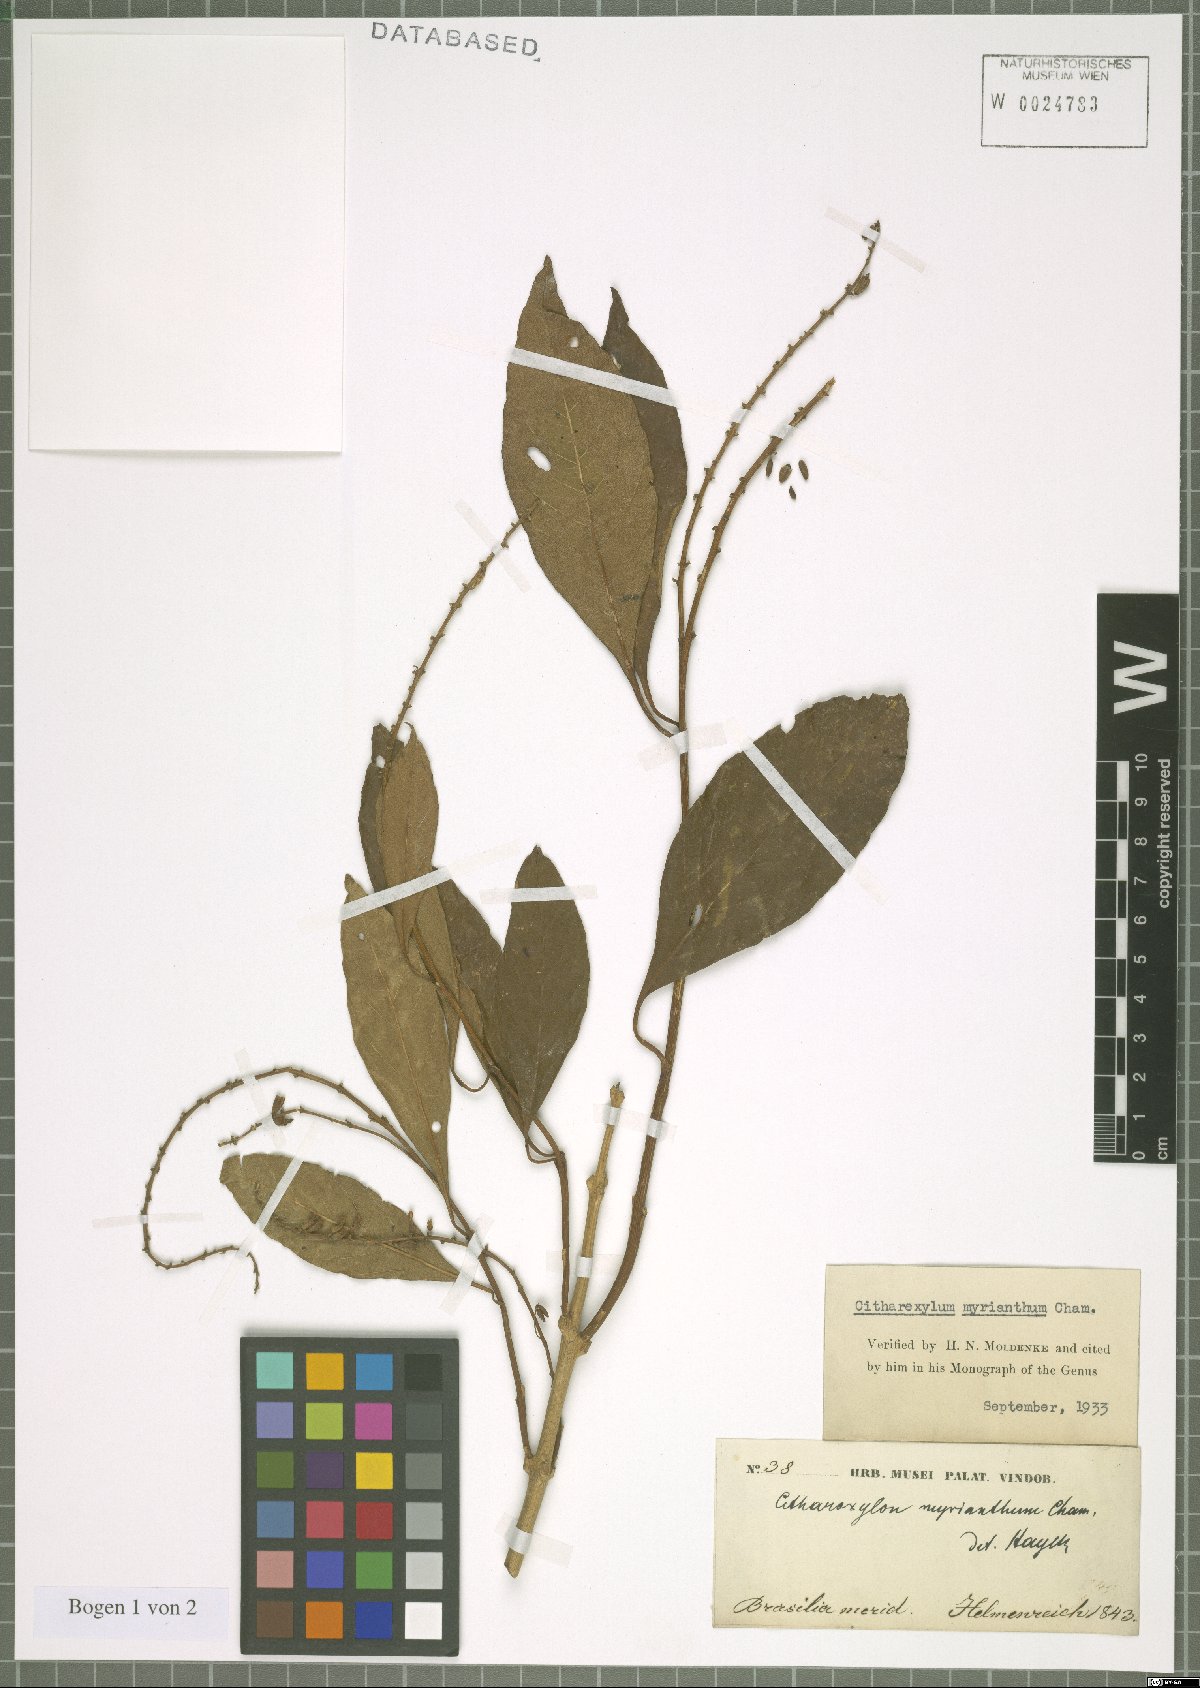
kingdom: Plantae
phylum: Tracheophyta
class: Magnoliopsida
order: Lamiales
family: Verbenaceae
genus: Citharexylum
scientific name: Citharexylum myrianthum
